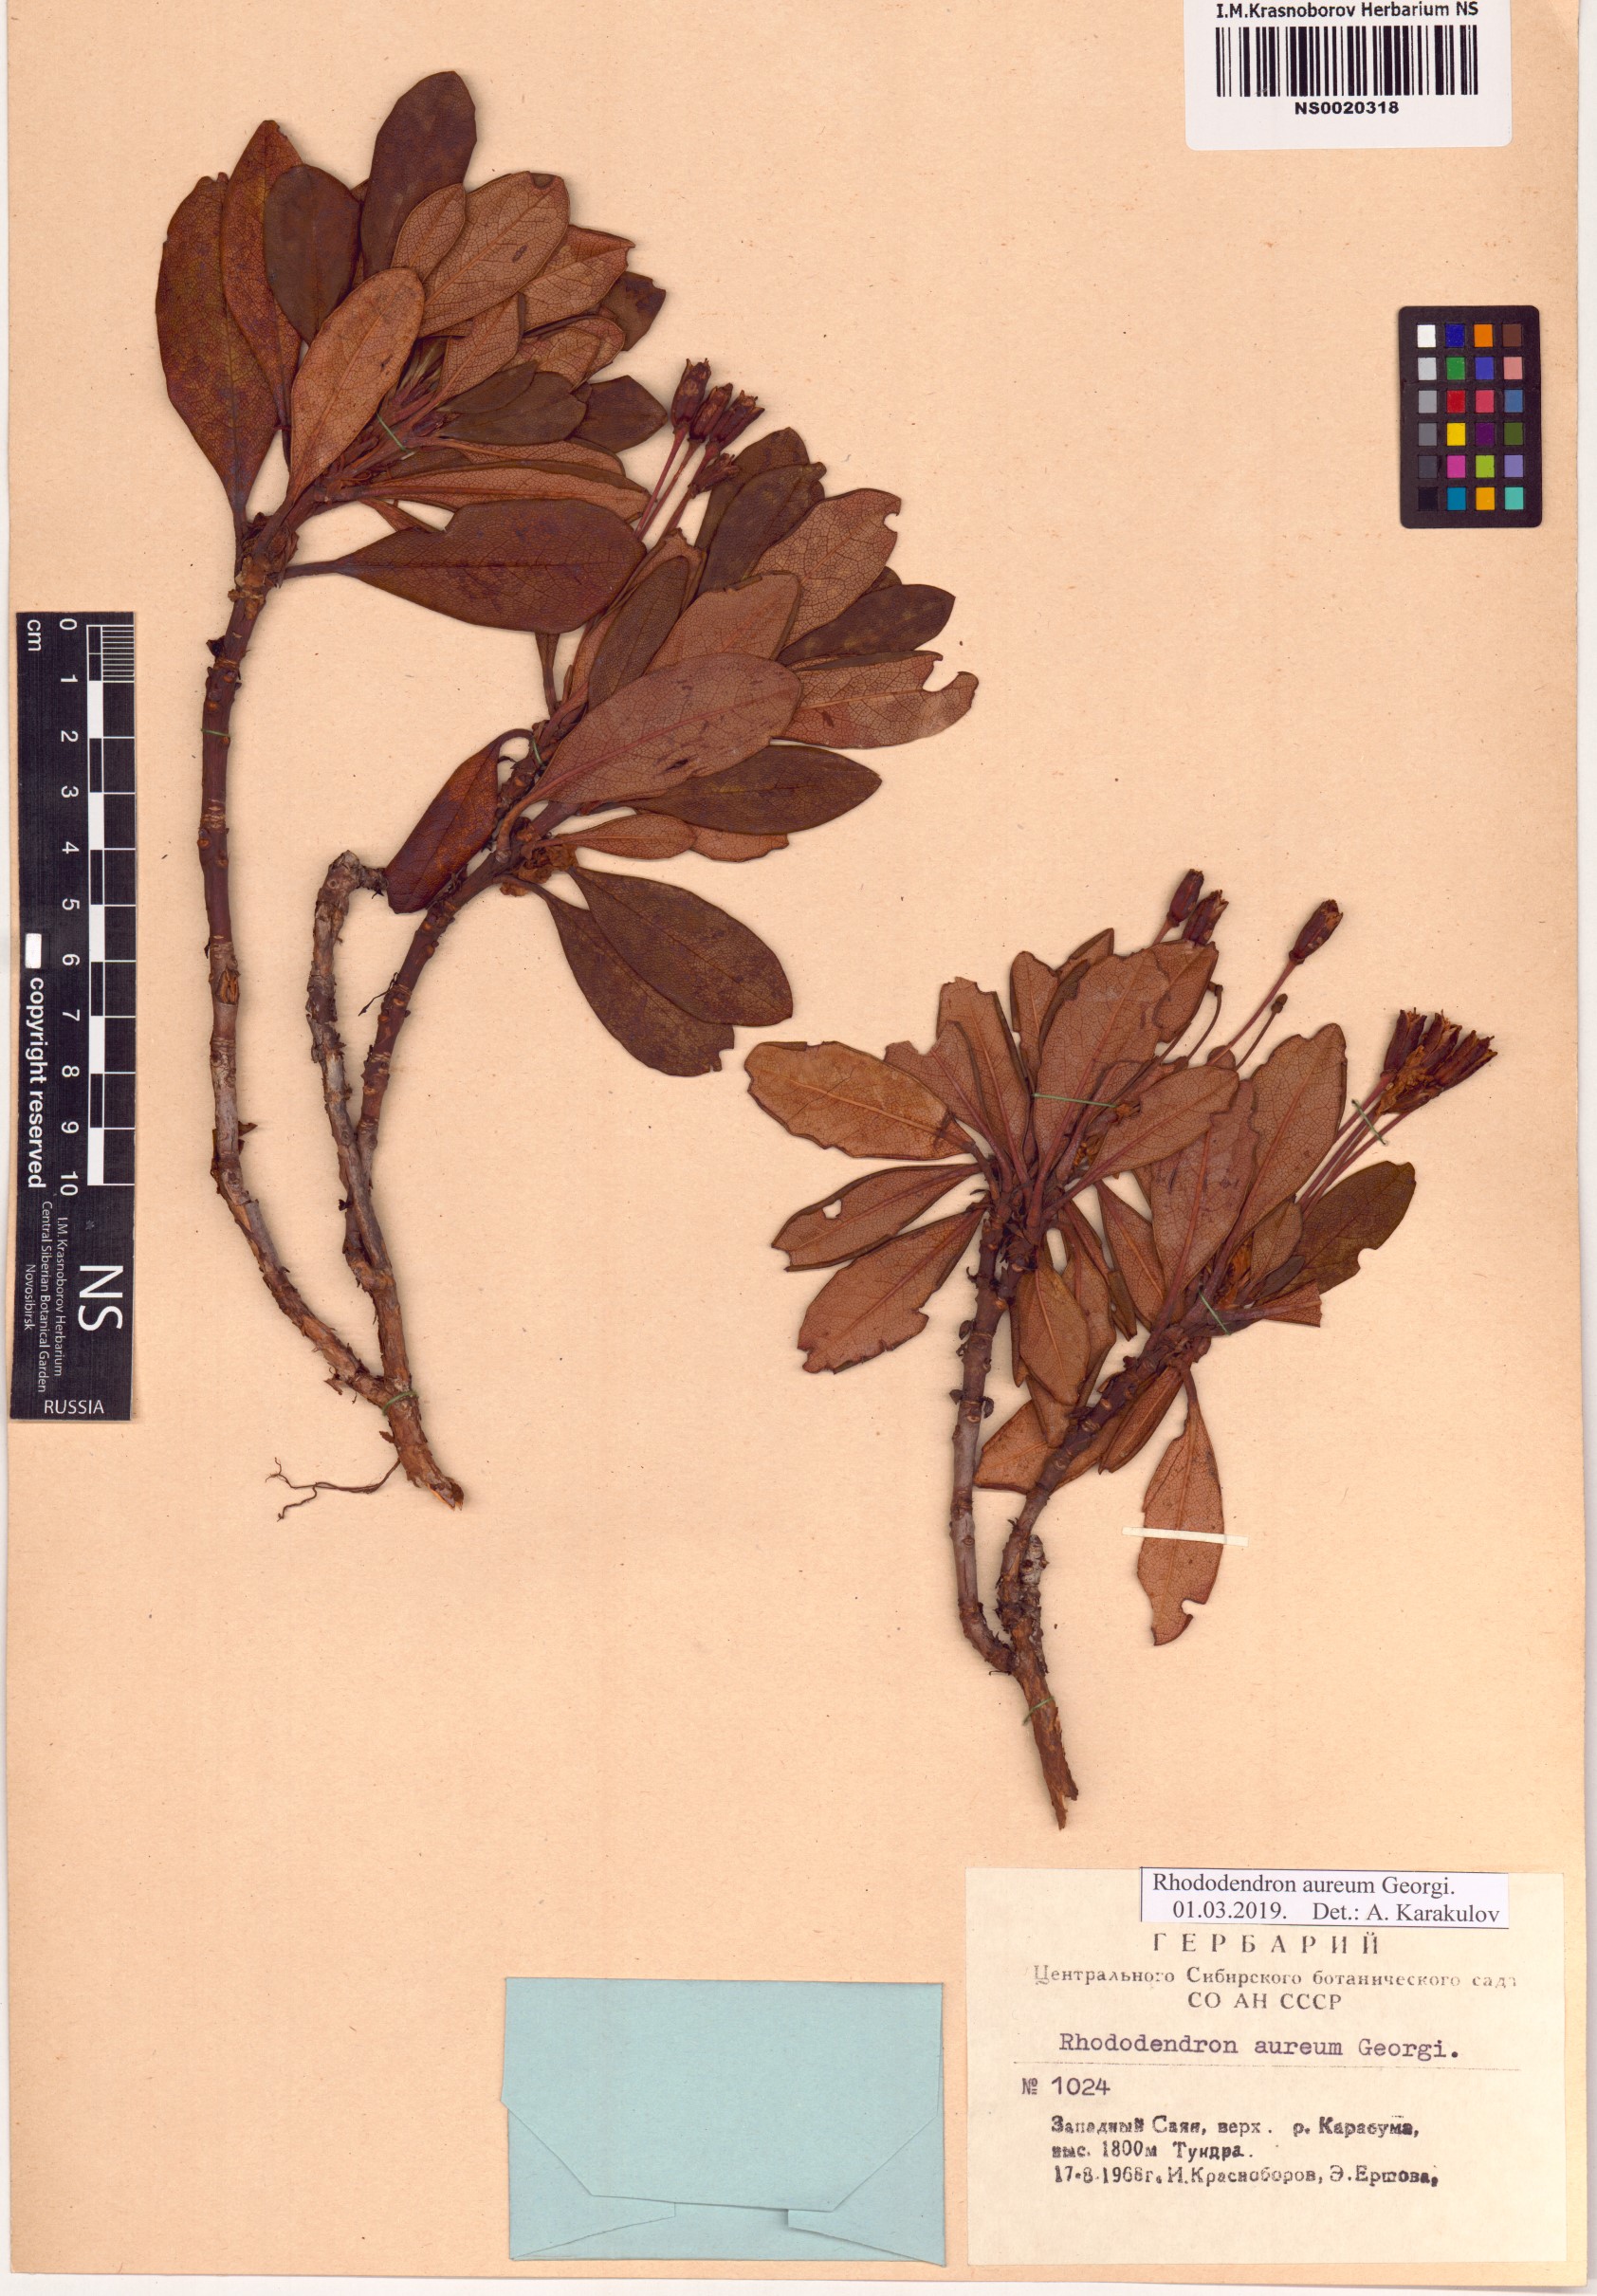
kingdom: Plantae
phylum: Tracheophyta
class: Magnoliopsida
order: Ericales
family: Ericaceae
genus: Rhododendron
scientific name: Rhododendron aureum
